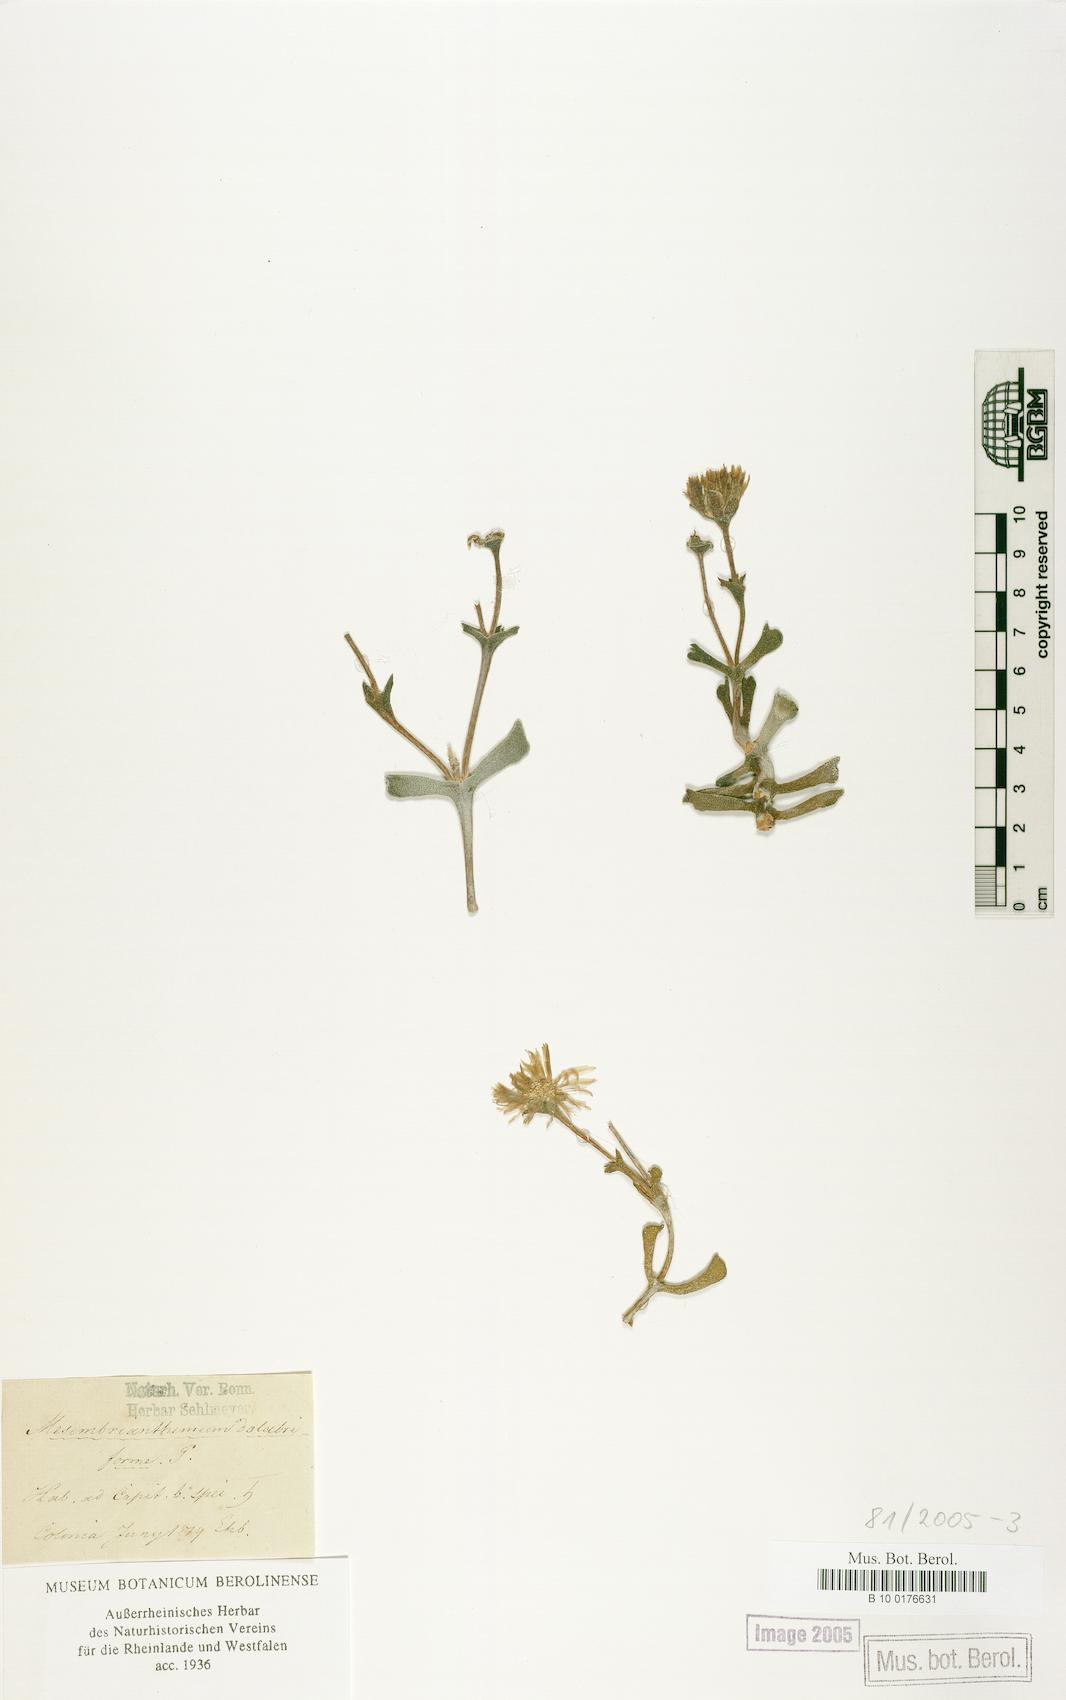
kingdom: Plantae
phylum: Tracheophyta
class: Magnoliopsida
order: Caryophyllales
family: Aizoaceae
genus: Dracophilus
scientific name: Dracophilus Rhombophyllum dolabriforme
